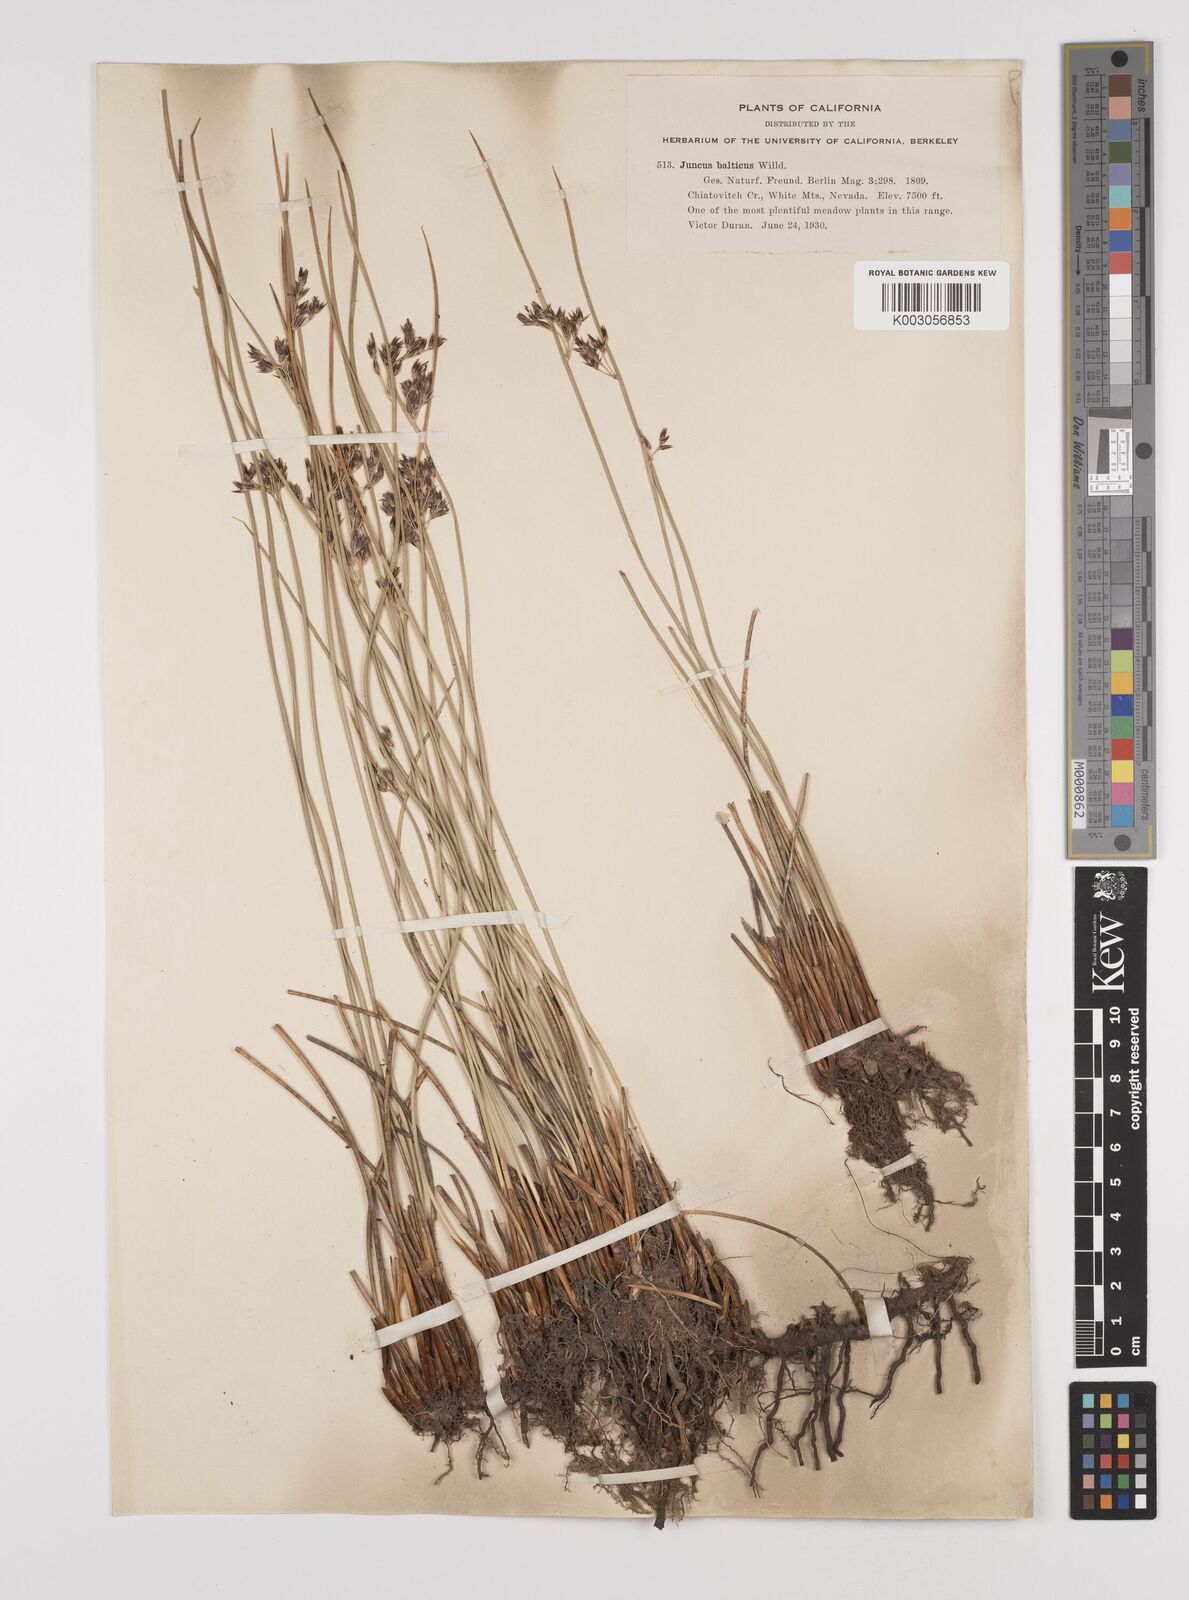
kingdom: Plantae
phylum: Tracheophyta
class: Liliopsida
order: Poales
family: Juncaceae
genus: Juncus
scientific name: Juncus balticus
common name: Baltic rush
